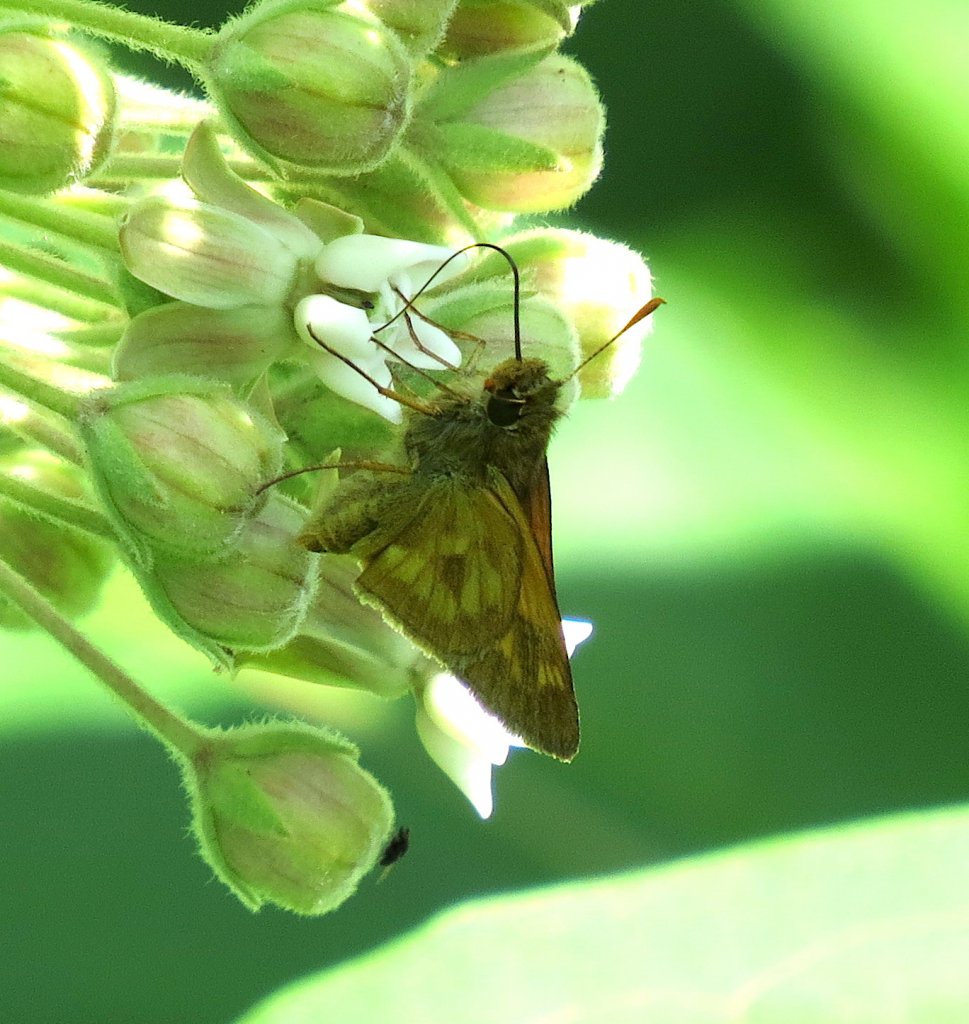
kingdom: Animalia
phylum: Arthropoda
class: Insecta
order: Lepidoptera
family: Hesperiidae
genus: Polites
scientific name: Polites
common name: Long Dash Skipper
